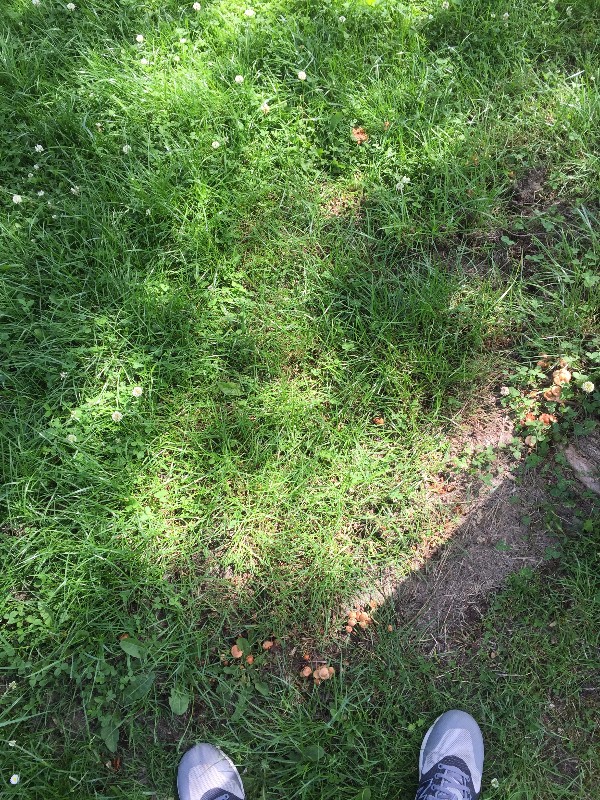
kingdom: Fungi
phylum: Basidiomycota
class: Agaricomycetes
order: Agaricales
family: Marasmiaceae
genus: Marasmius
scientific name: Marasmius oreades
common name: elledans-bruskhat
